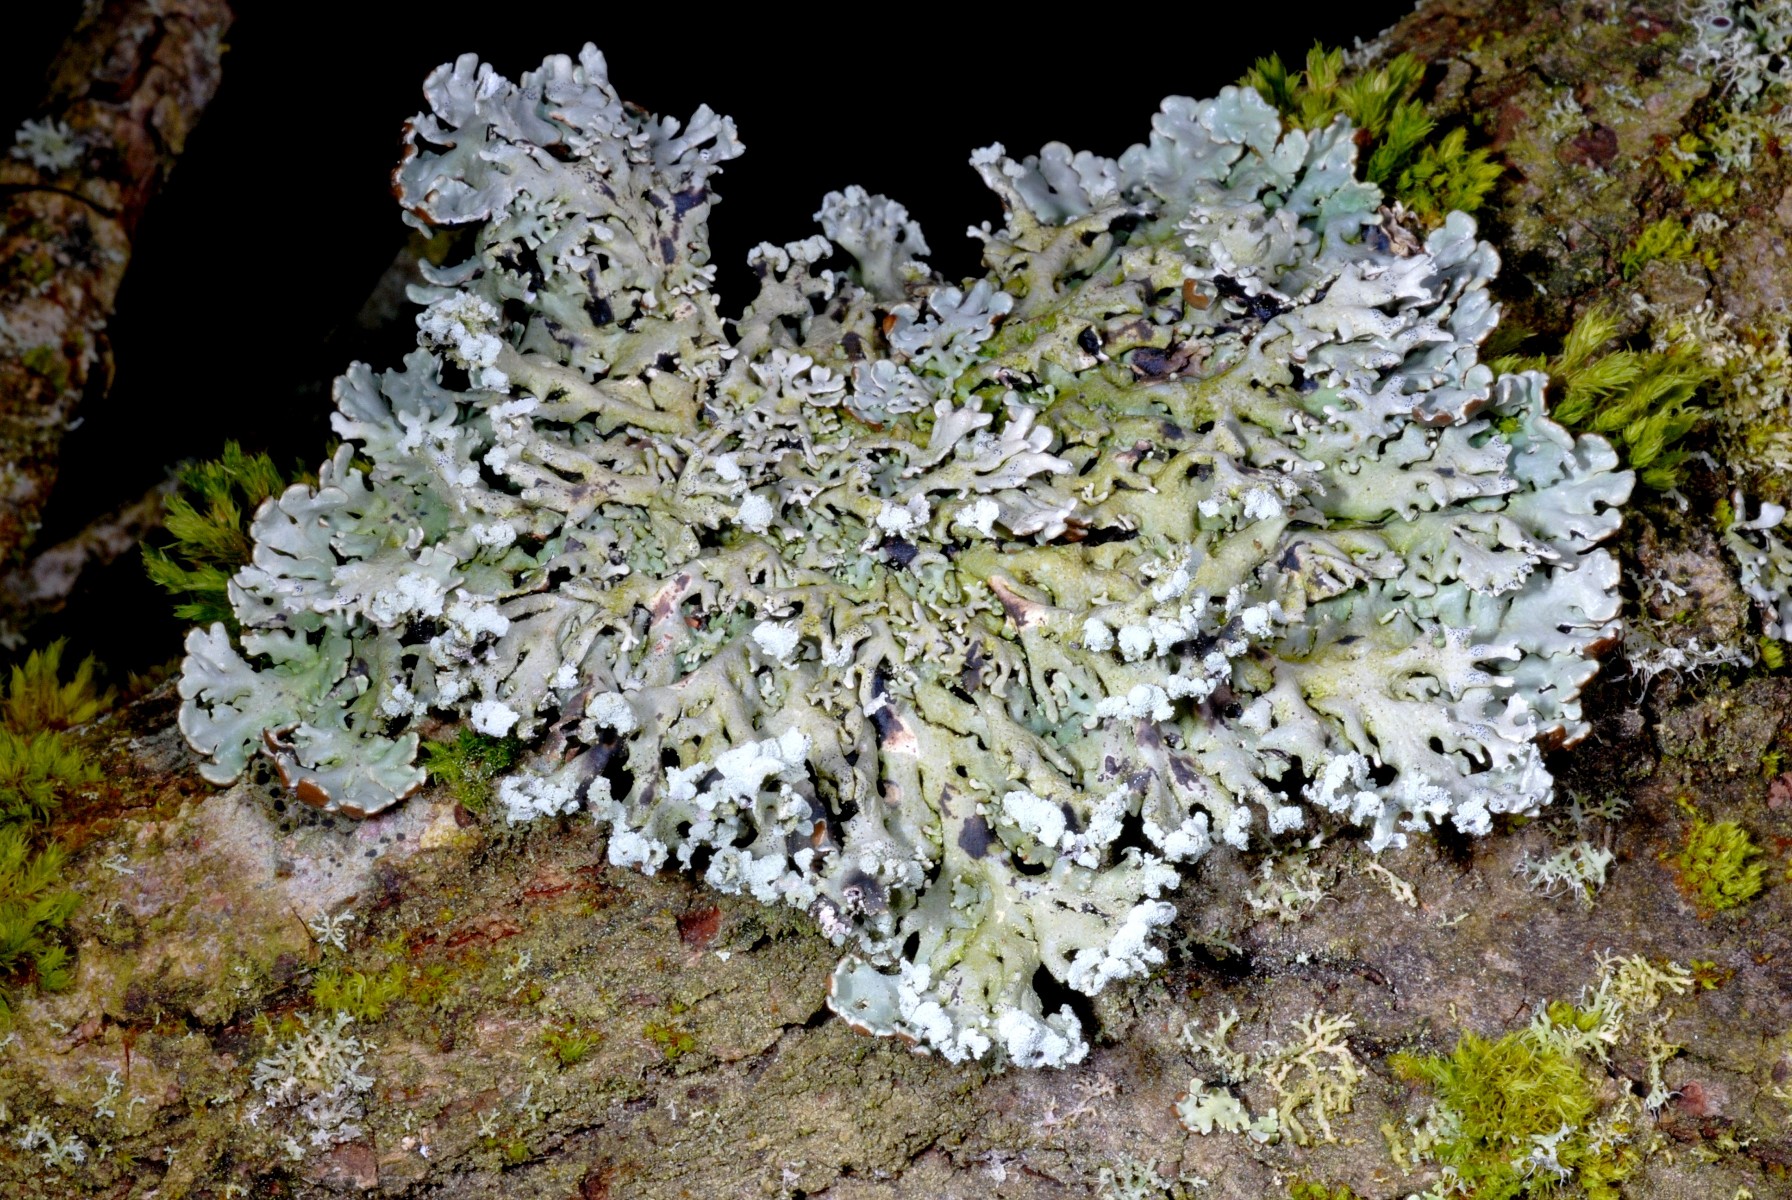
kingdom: Fungi
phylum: Ascomycota
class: Lecanoromycetes
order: Lecanorales
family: Parmeliaceae
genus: Hypogymnia
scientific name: Hypogymnia physodes
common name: almindelig kvistlav
